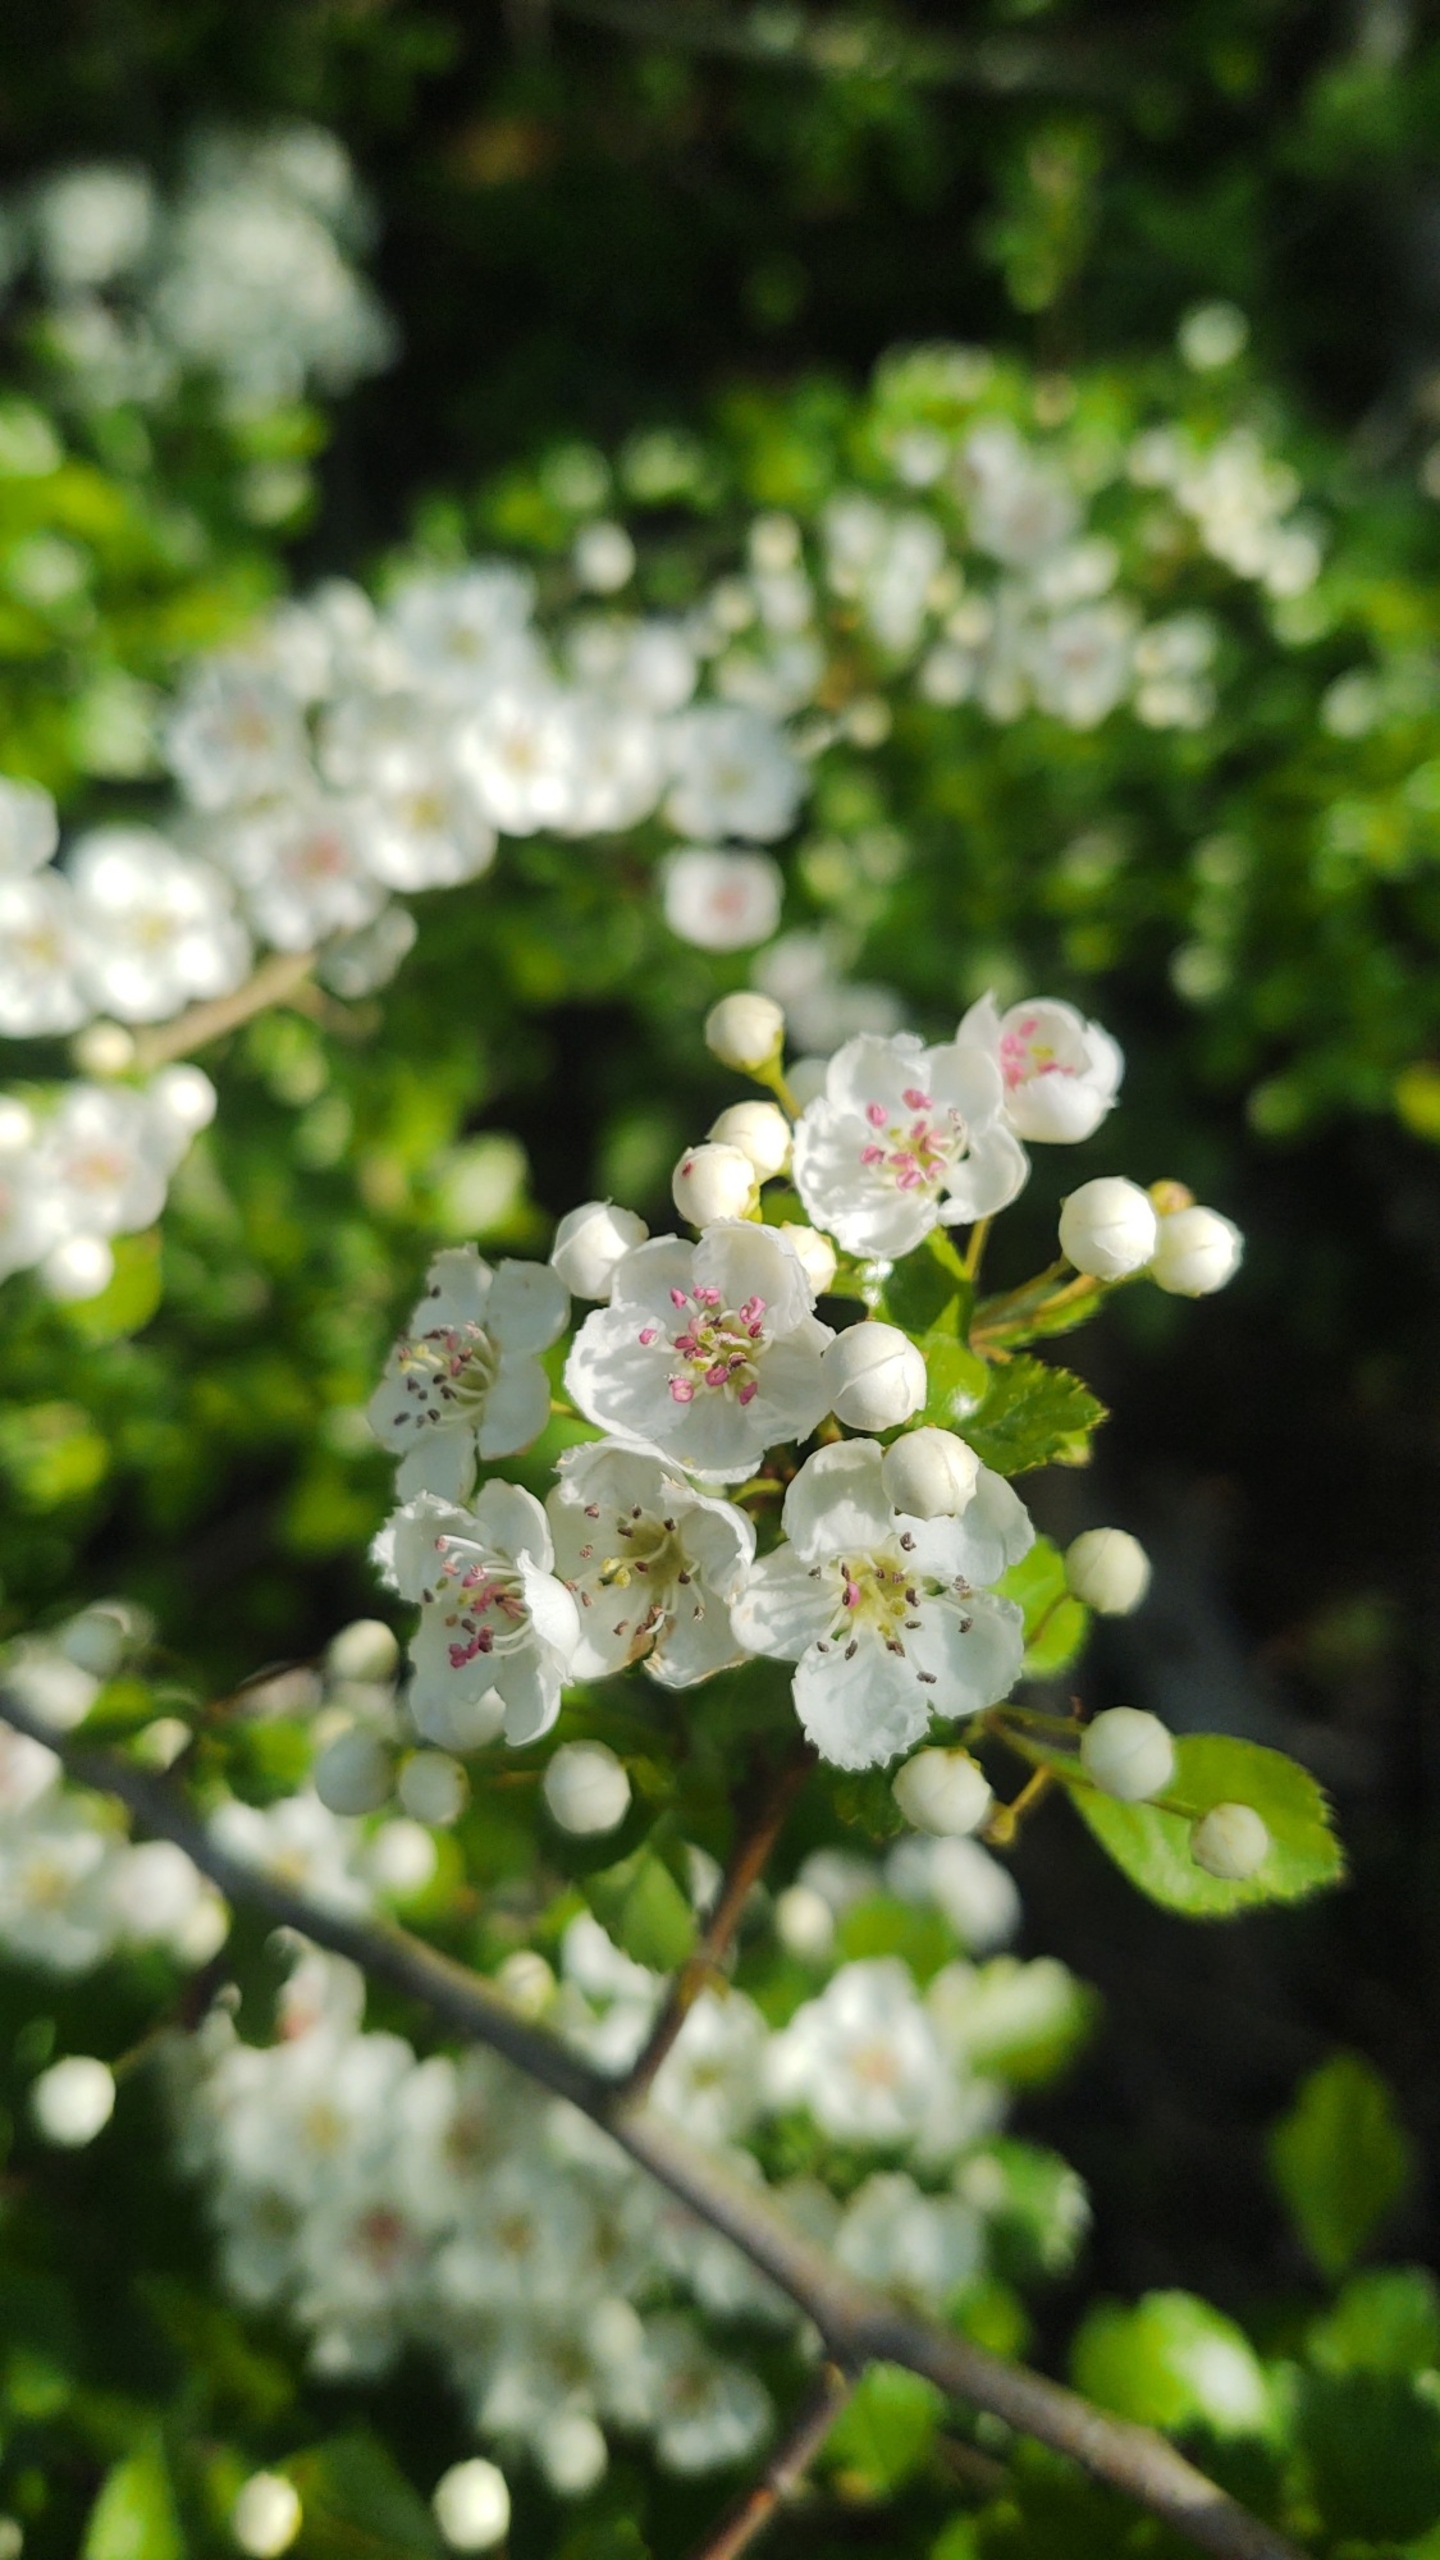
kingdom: Plantae
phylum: Tracheophyta
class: Magnoliopsida
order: Rosales
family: Rosaceae
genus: Crataegus
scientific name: Crataegus laevigata
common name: Almindelig hvidtjørn
